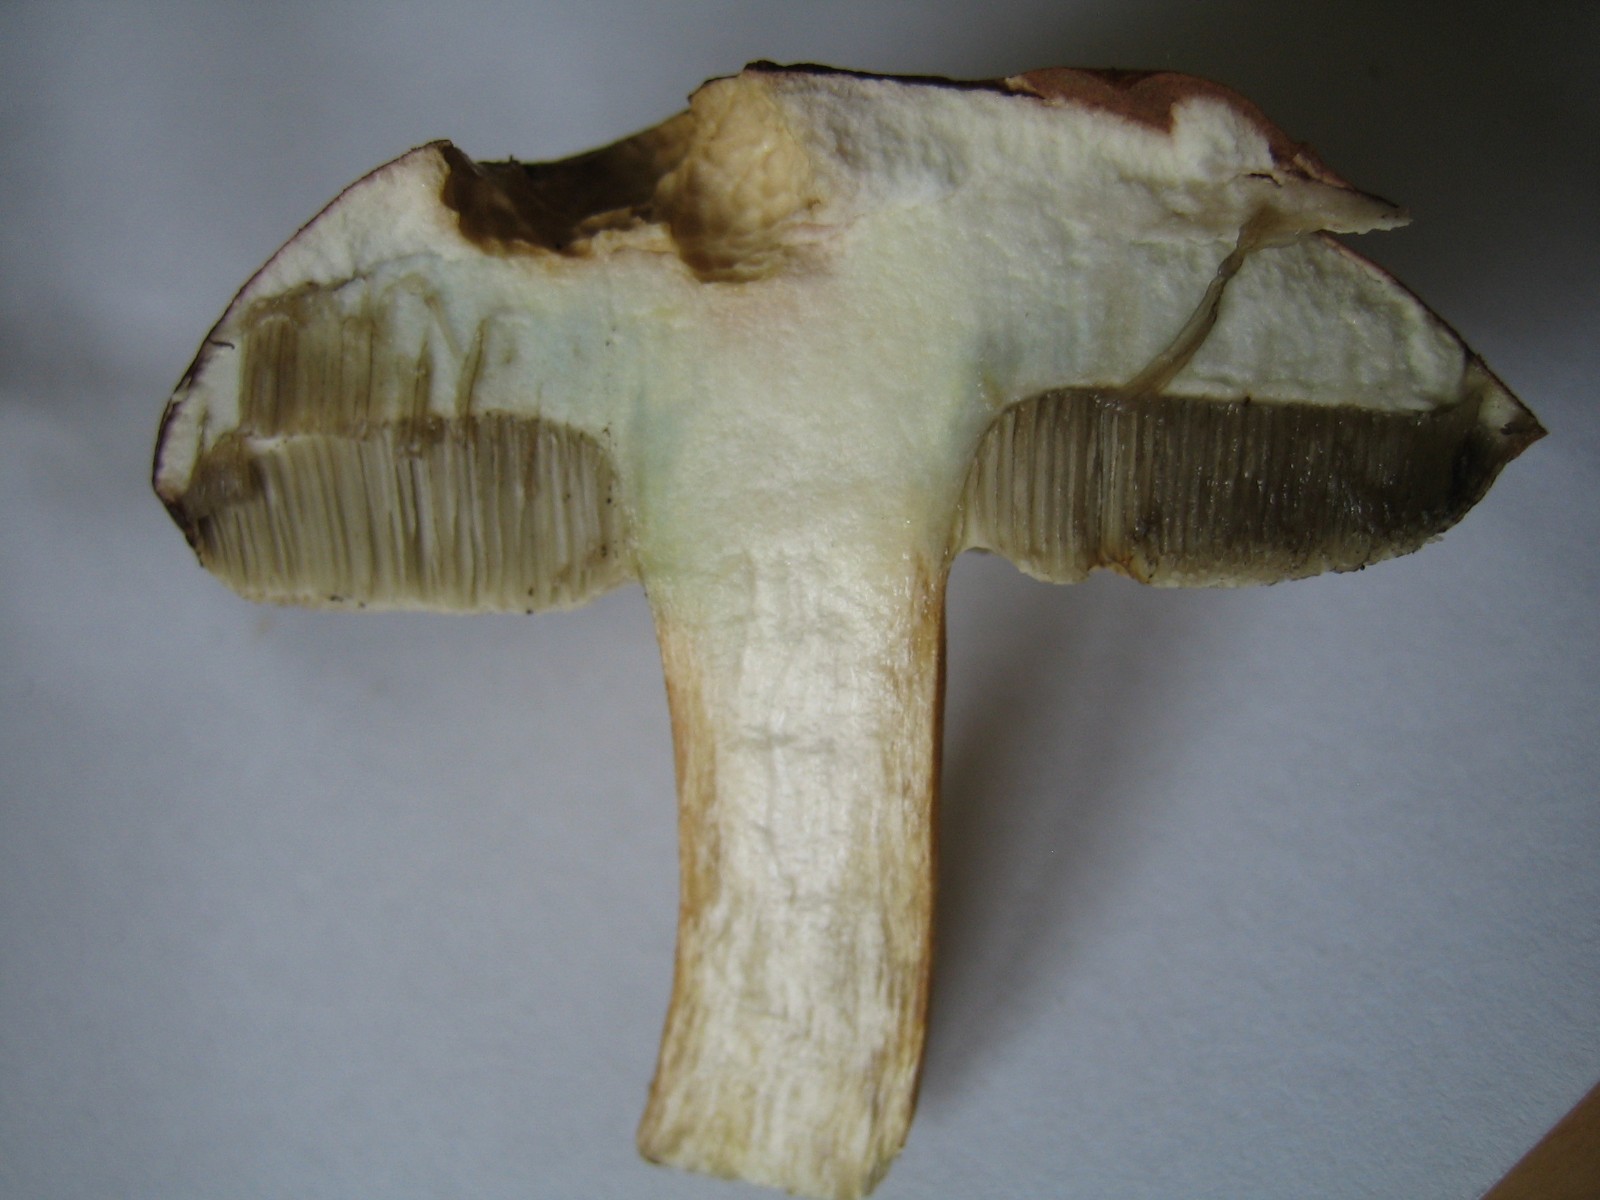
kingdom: Fungi
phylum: Basidiomycota
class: Agaricomycetes
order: Boletales
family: Boletaceae
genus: Imleria
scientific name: Imleria badia
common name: brunstokket rørhat
